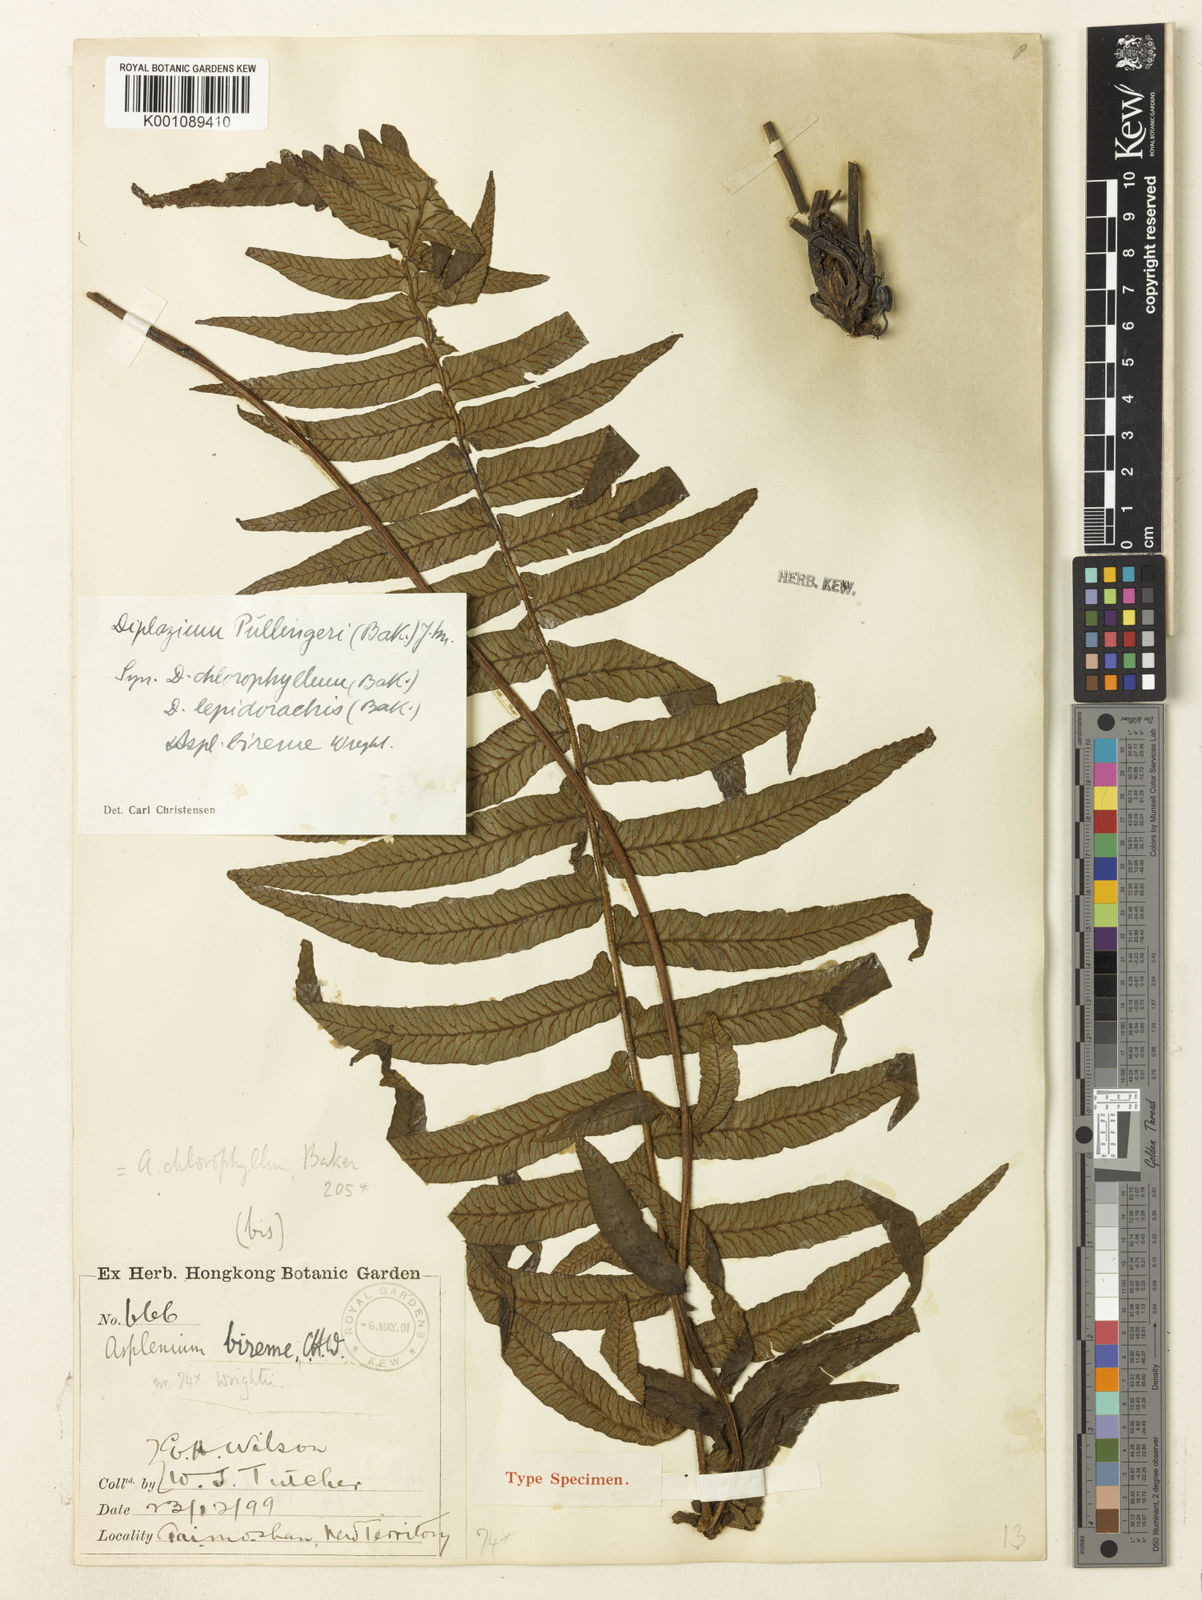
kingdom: Plantae
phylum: Tracheophyta
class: Polypodiopsida
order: Polypodiales
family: Athyriaceae
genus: Diplazium
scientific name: Diplazium pullingeri
